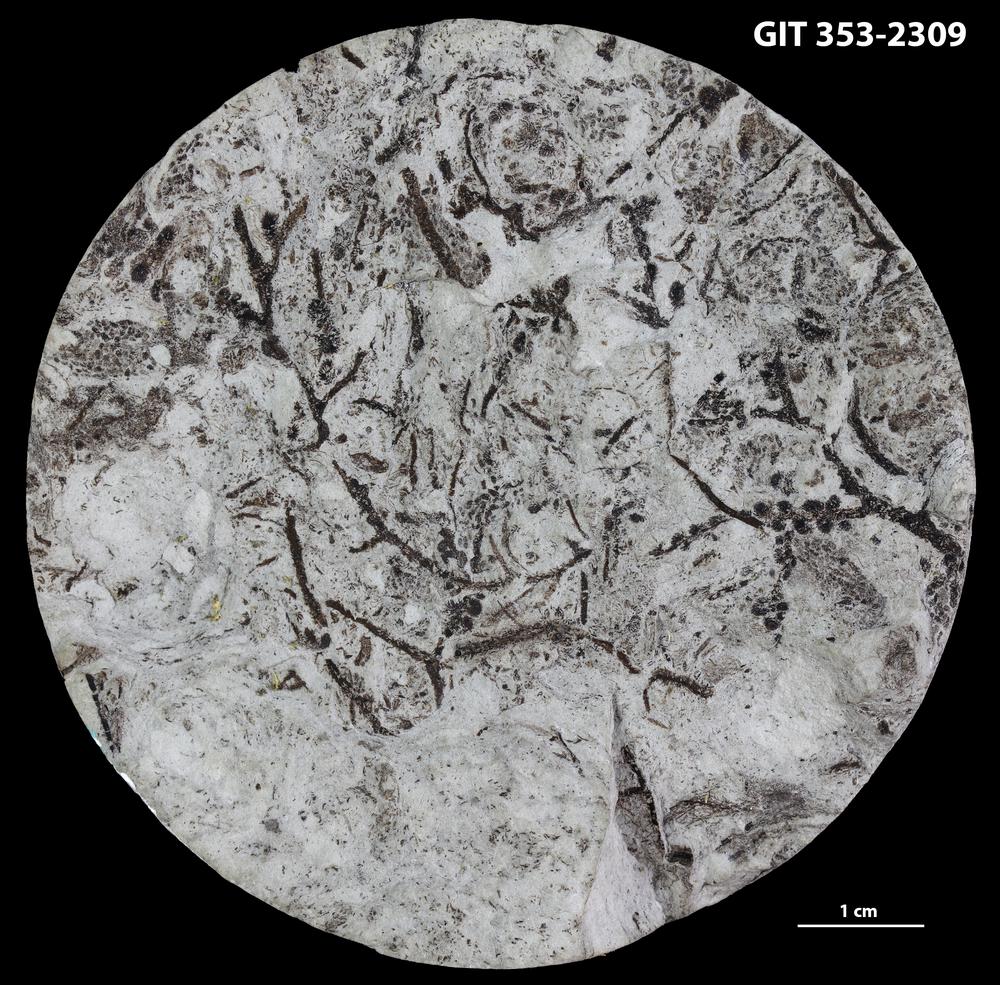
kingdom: Plantae
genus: Leveilleites
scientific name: Leveilleites hartnageli
